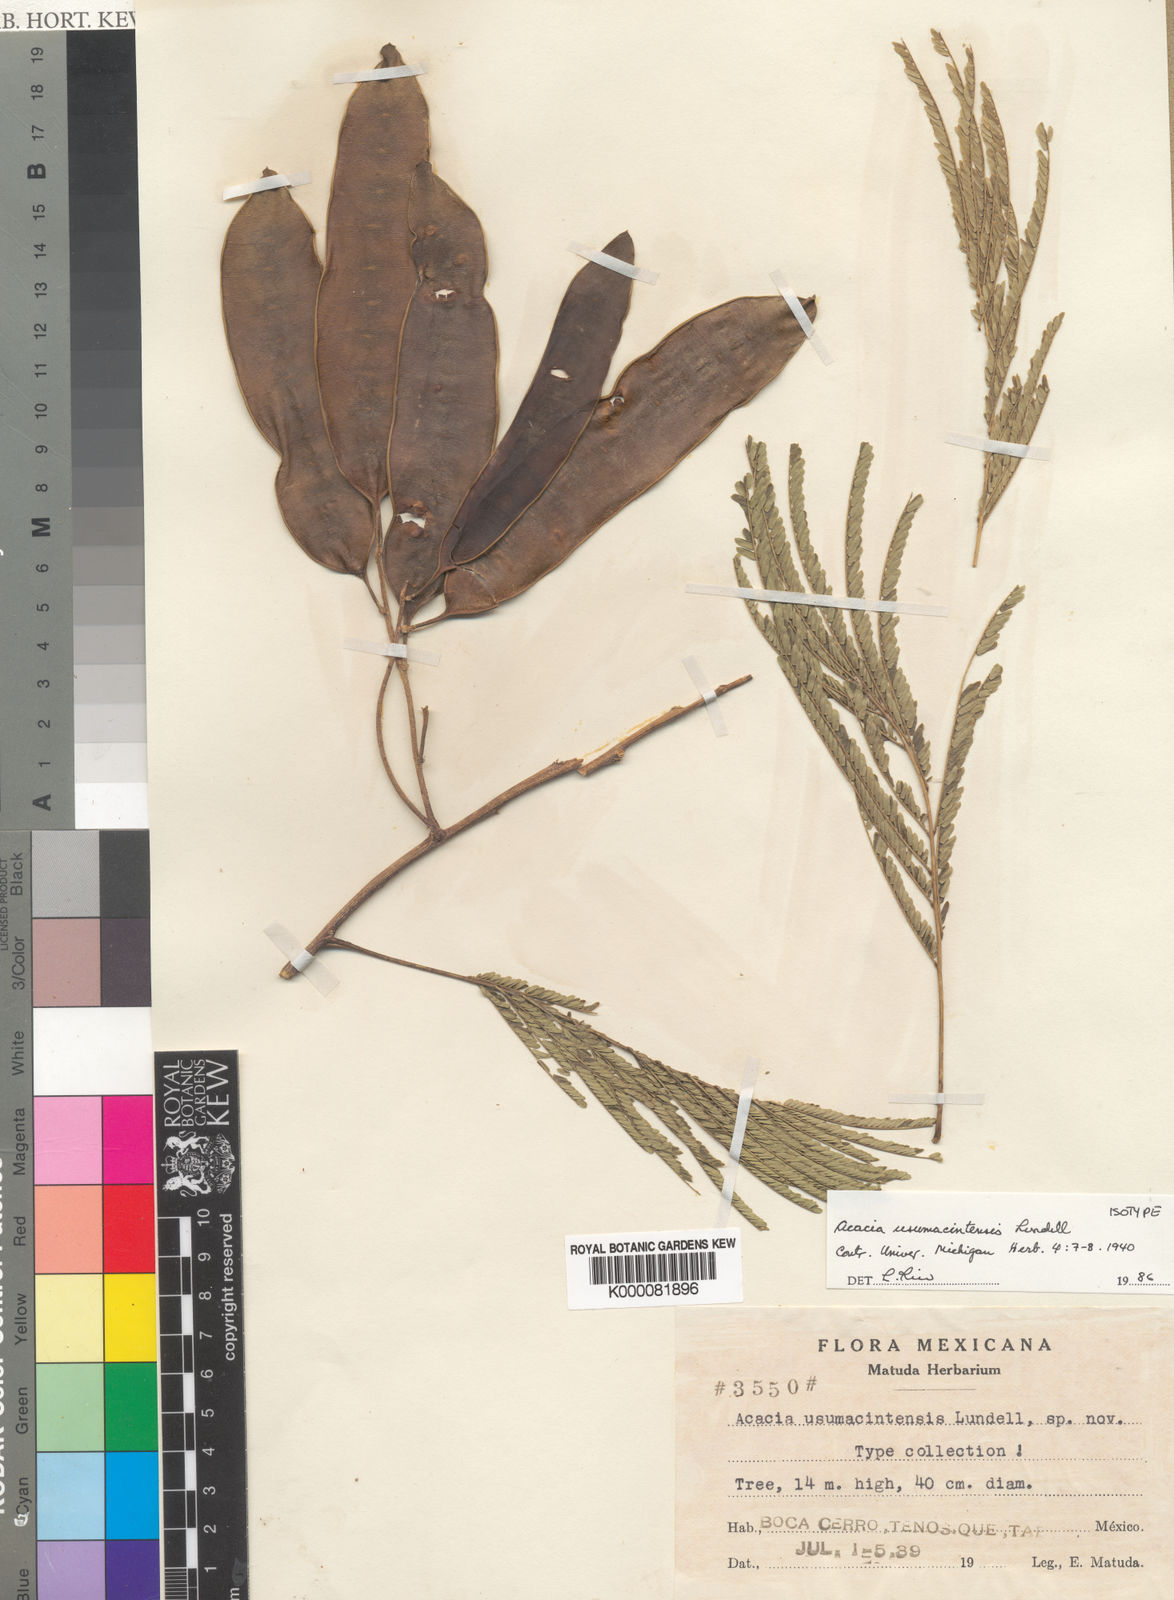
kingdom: Plantae
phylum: Tracheophyta
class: Magnoliopsida
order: Fabales
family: Fabaceae
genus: Mariosousa
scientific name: Mariosousa usumacintensis
